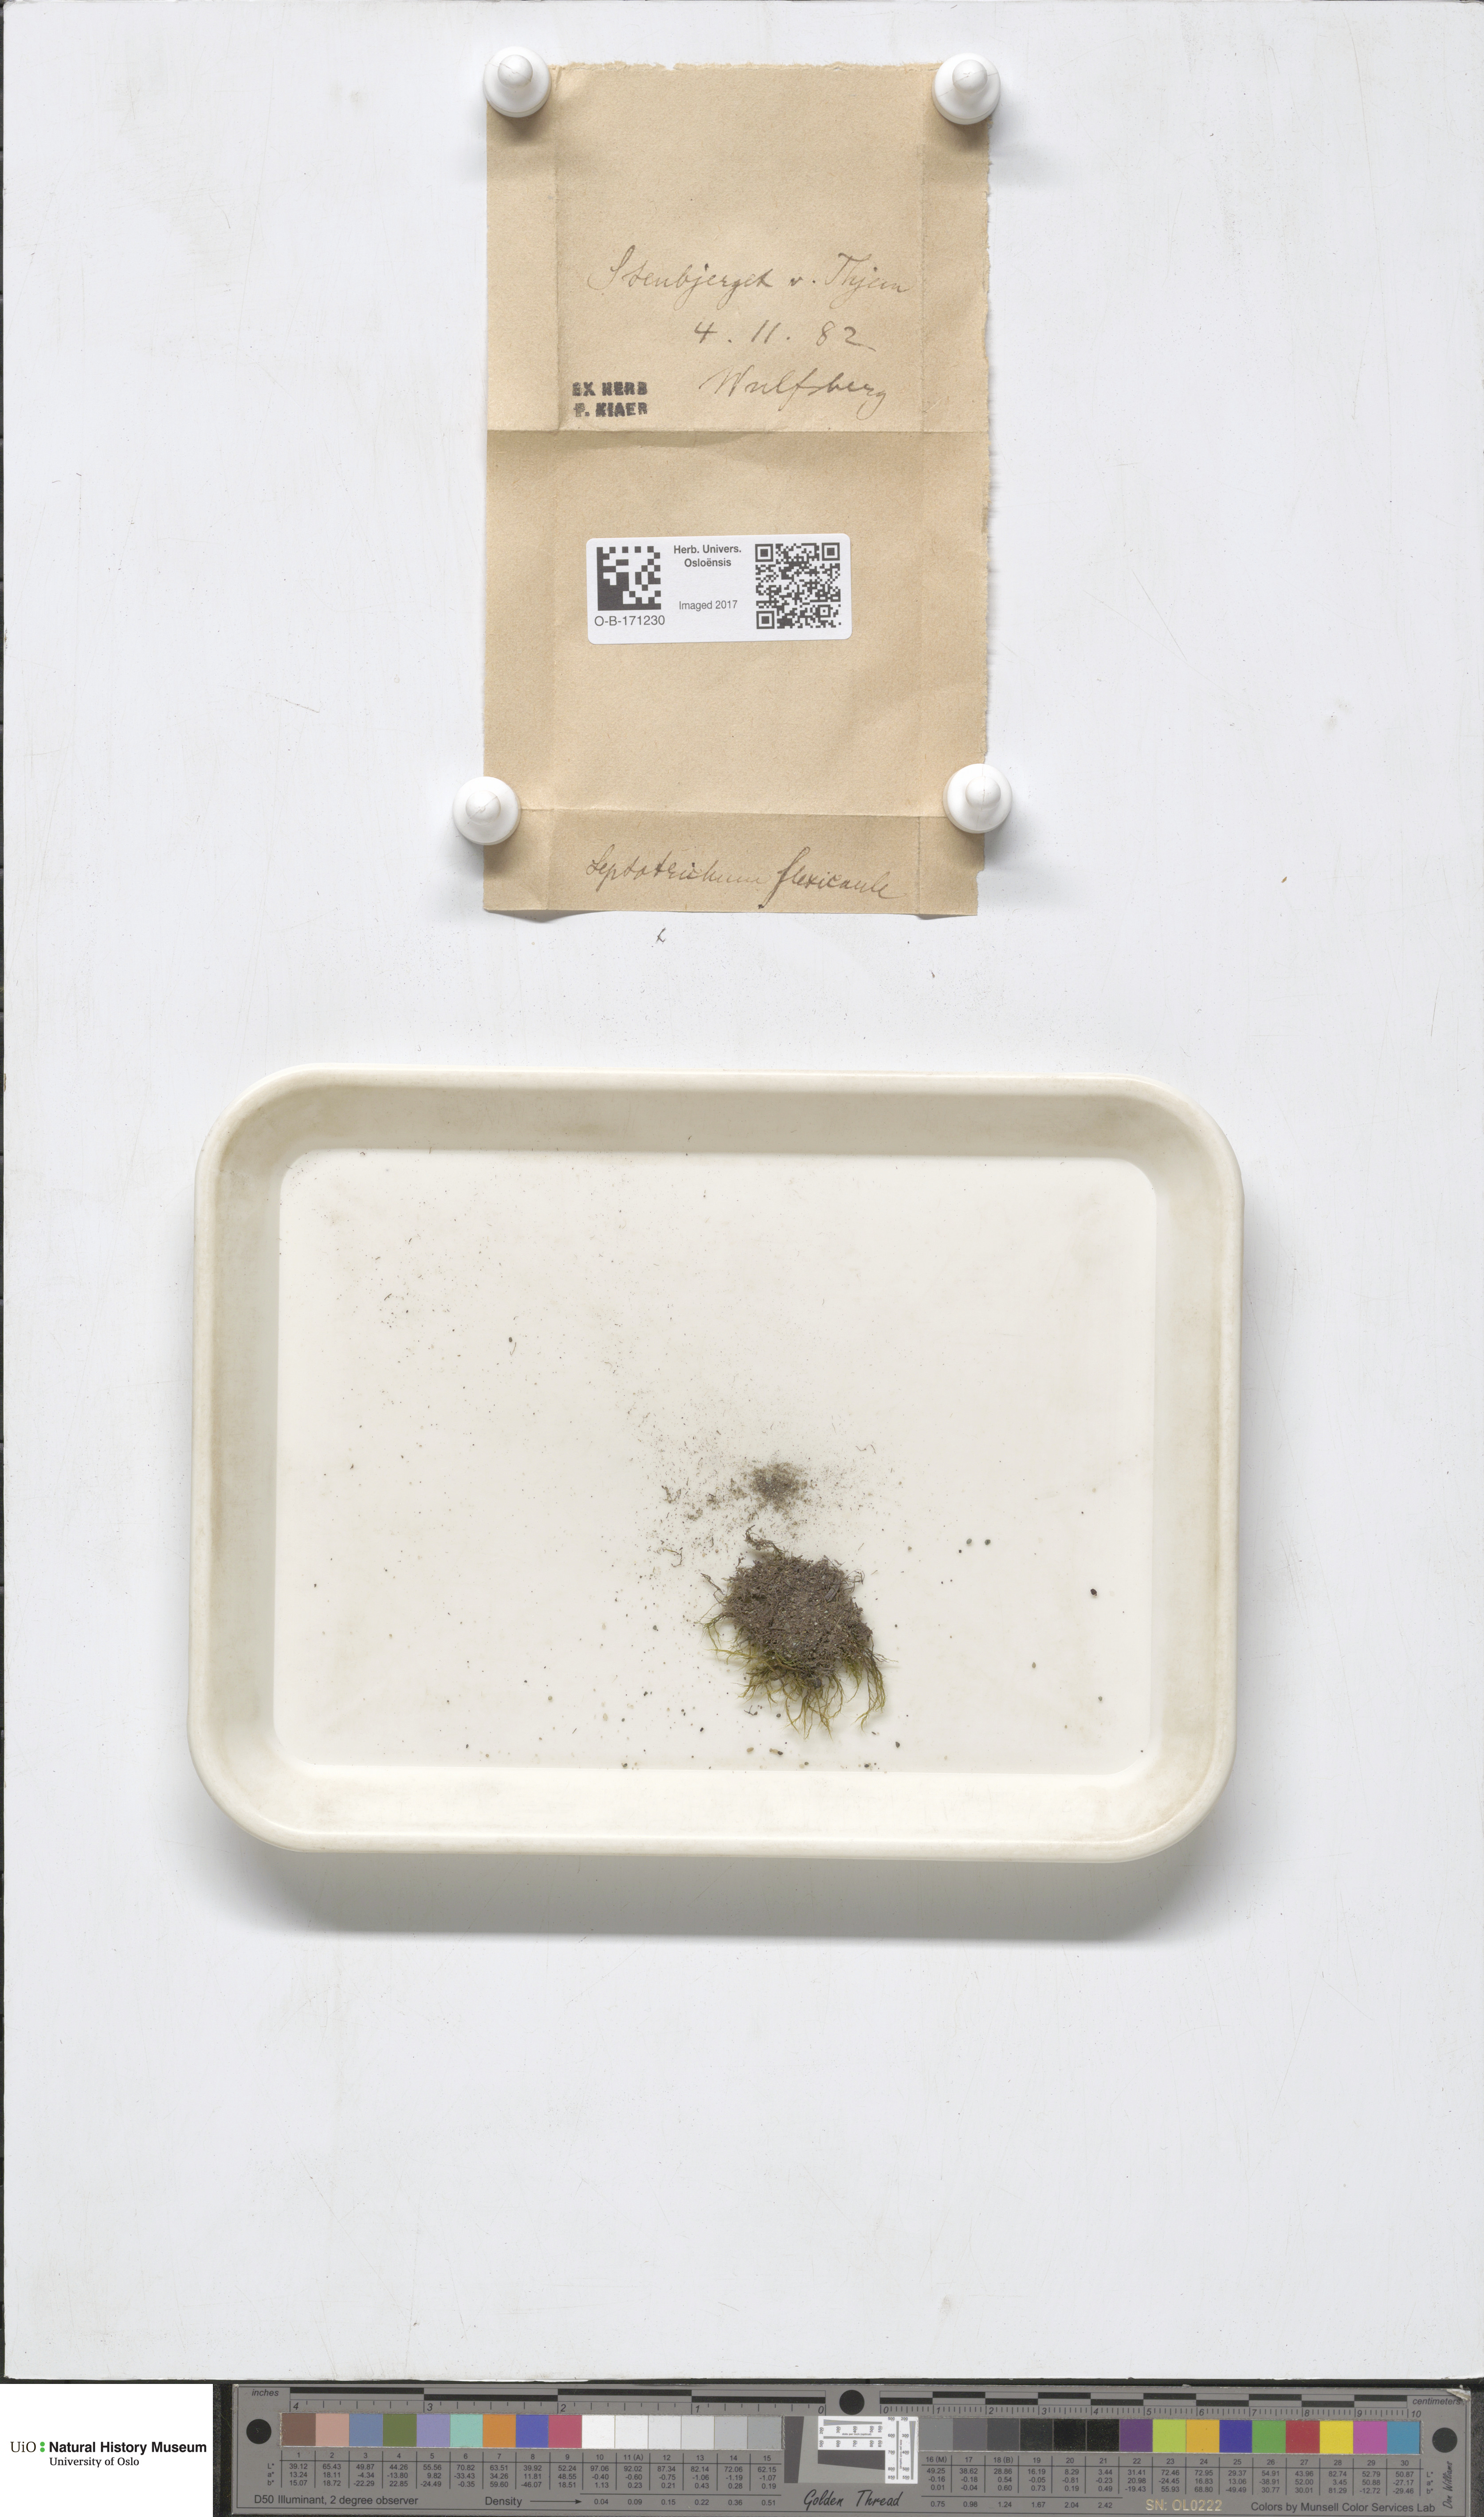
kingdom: Plantae
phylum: Bryophyta
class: Bryopsida
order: Scouleriales
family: Flexitrichaceae
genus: Flexitrichum
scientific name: Flexitrichum flexicaule
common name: Bendy ditrichum
